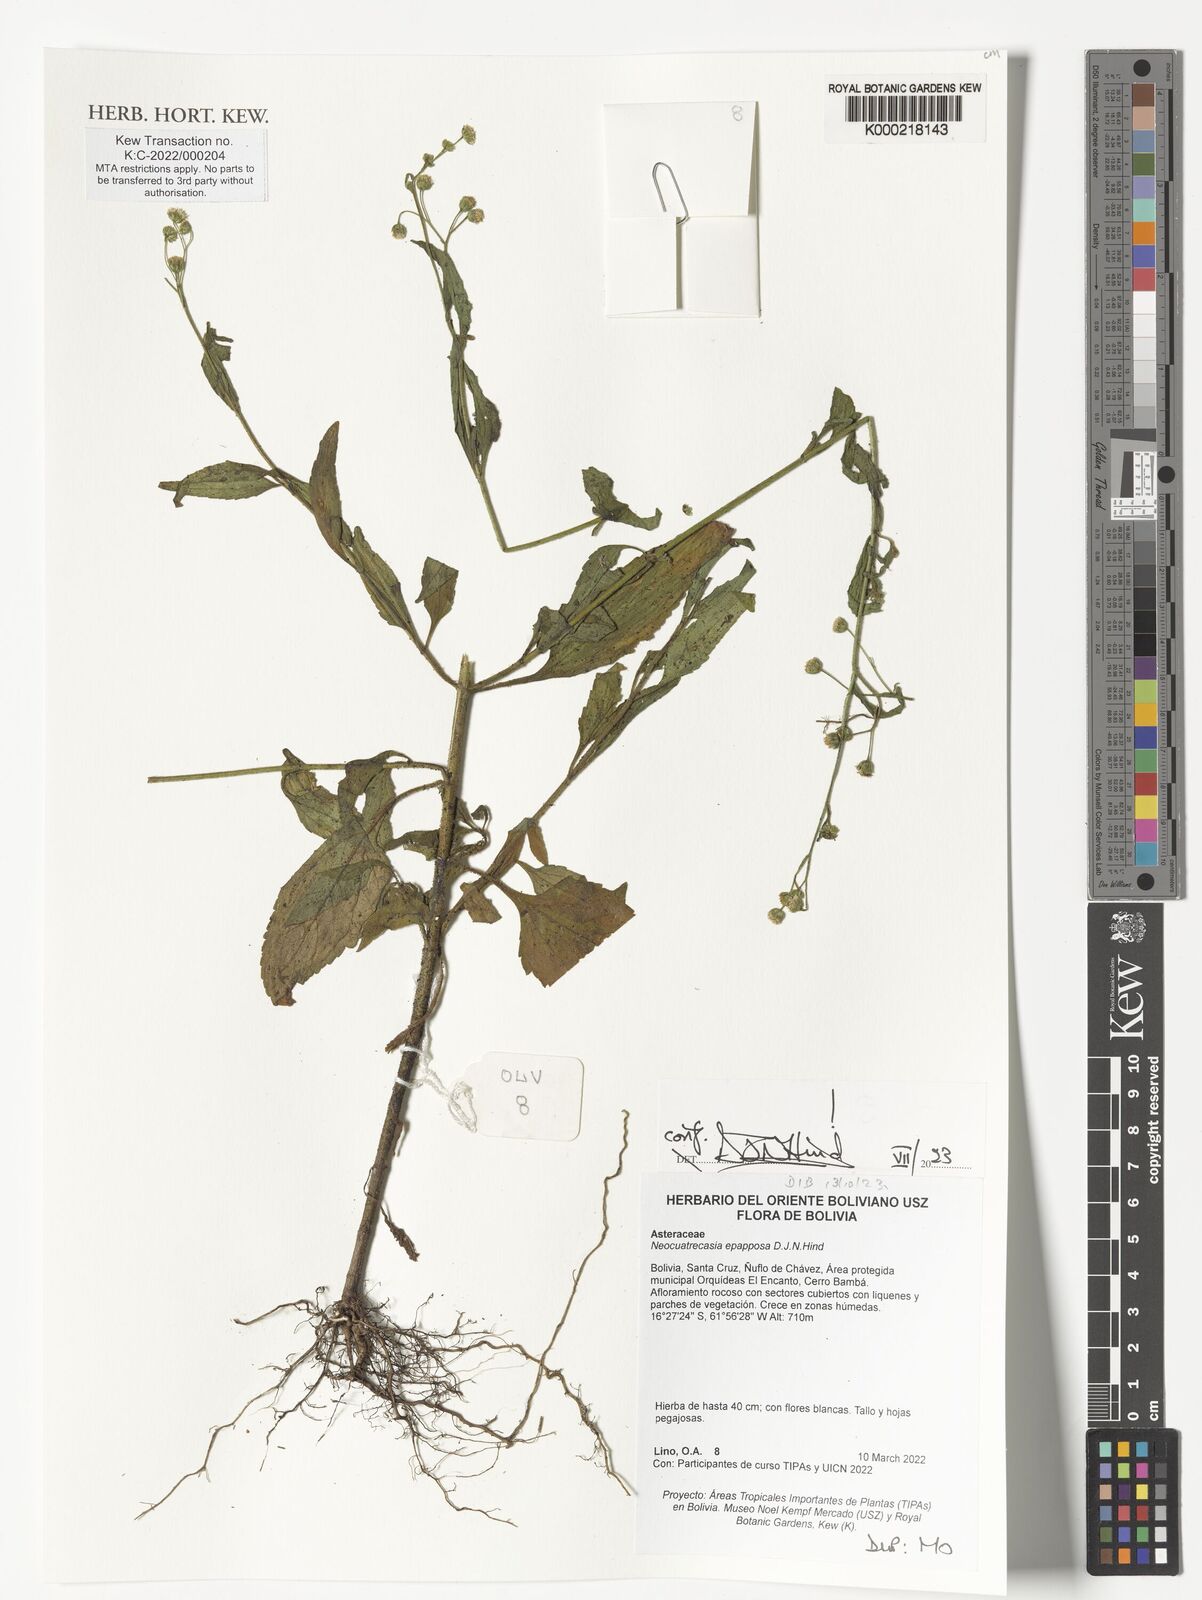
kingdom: Plantae
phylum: Tracheophyta
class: Magnoliopsida
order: Asterales
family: Asteraceae
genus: Neocuatrecasia
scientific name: Neocuatrecasia epapposa
